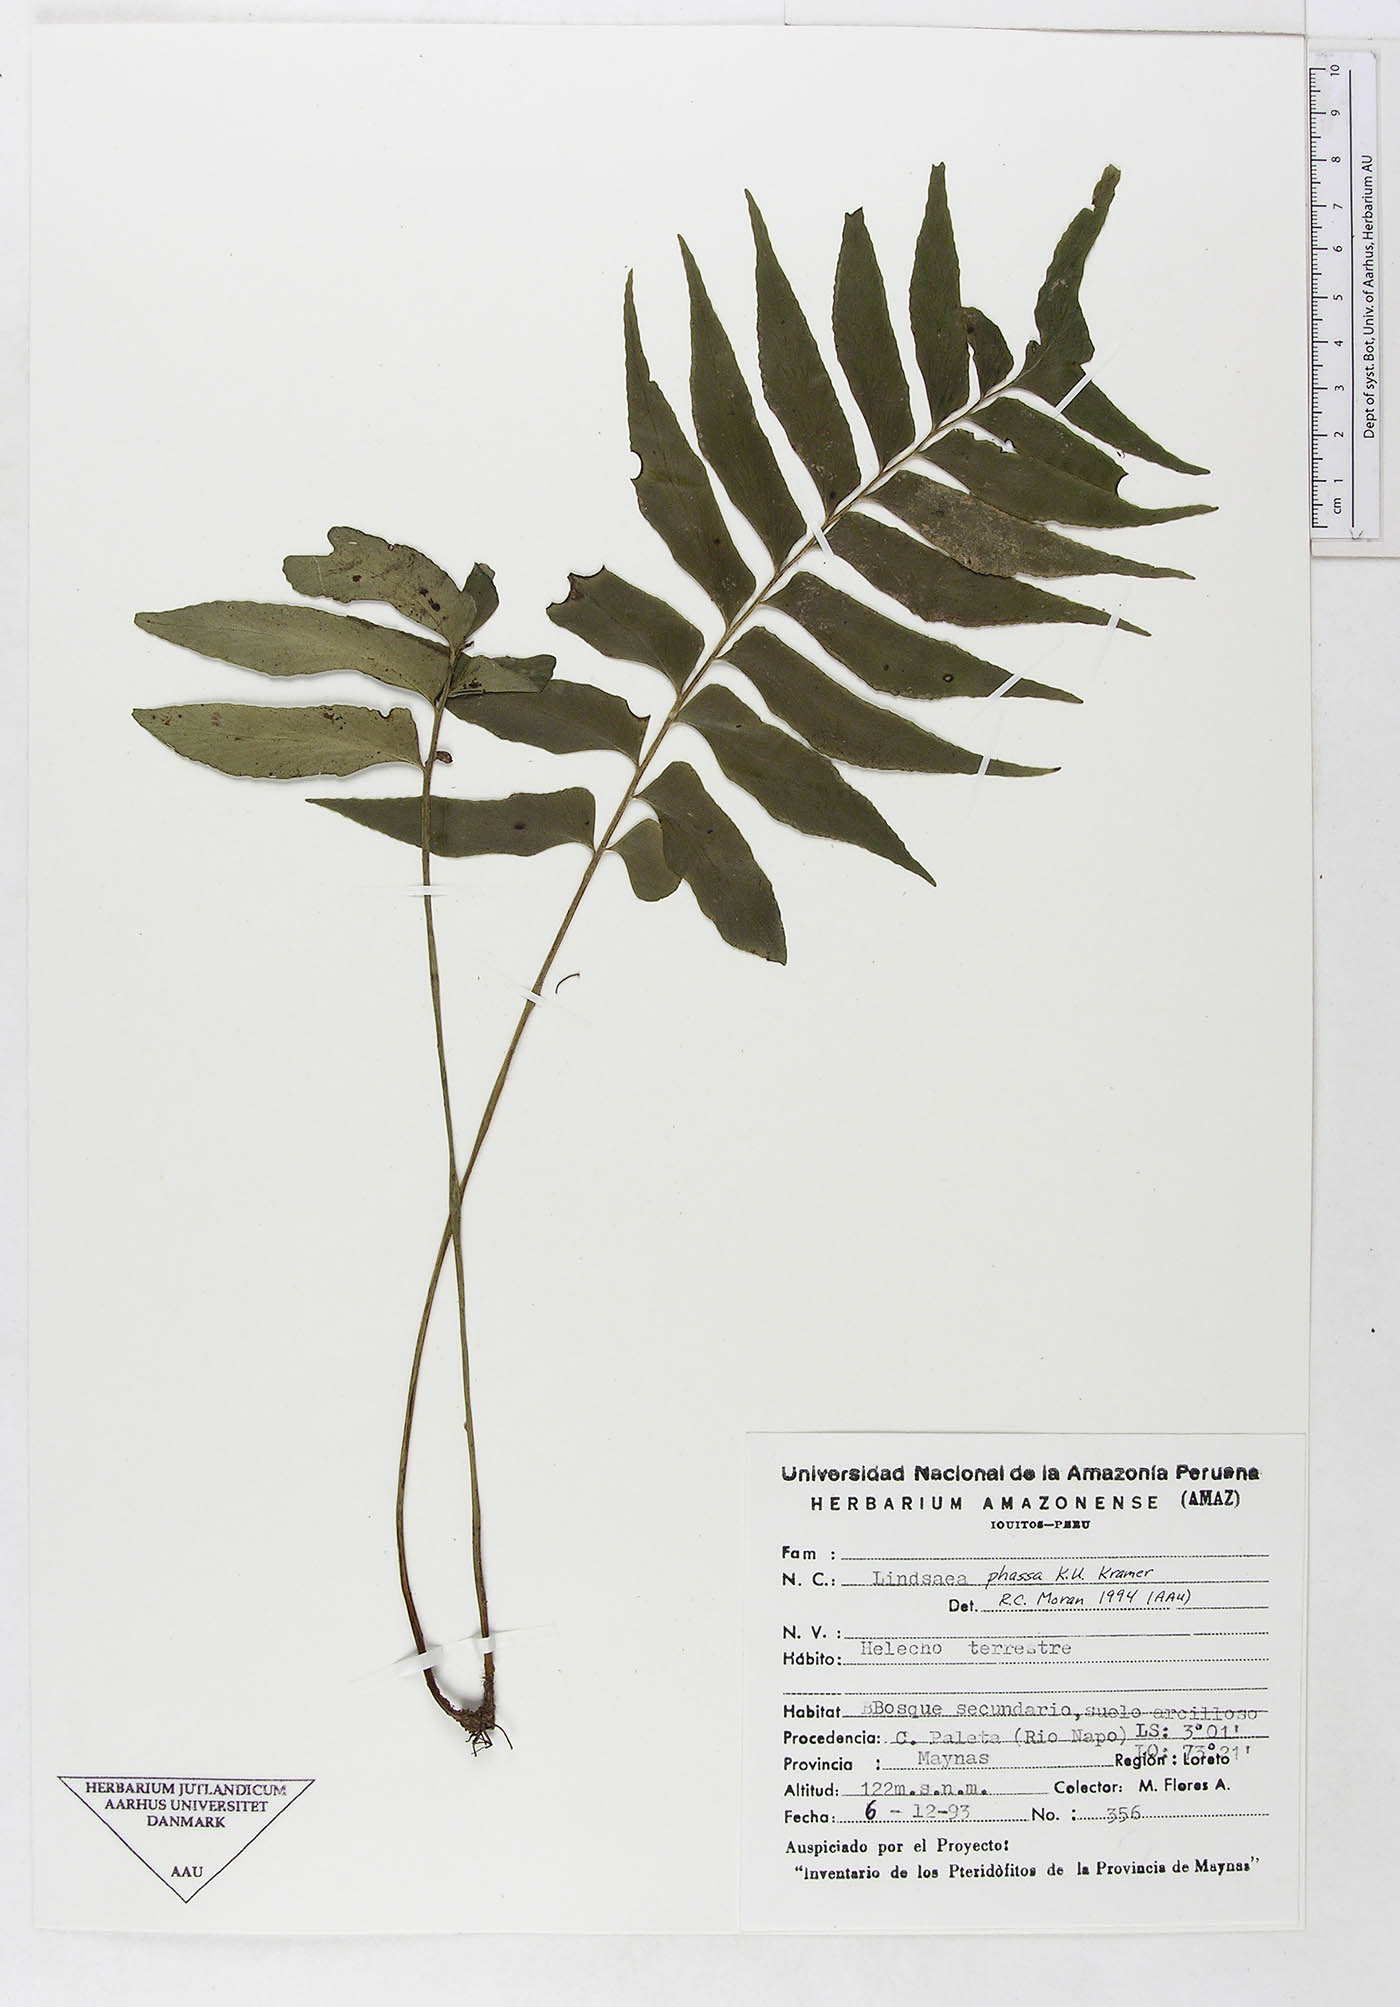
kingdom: Plantae
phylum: Tracheophyta
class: Polypodiopsida
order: Polypodiales
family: Lindsaeaceae
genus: Lindsaea
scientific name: Lindsaea phassa
